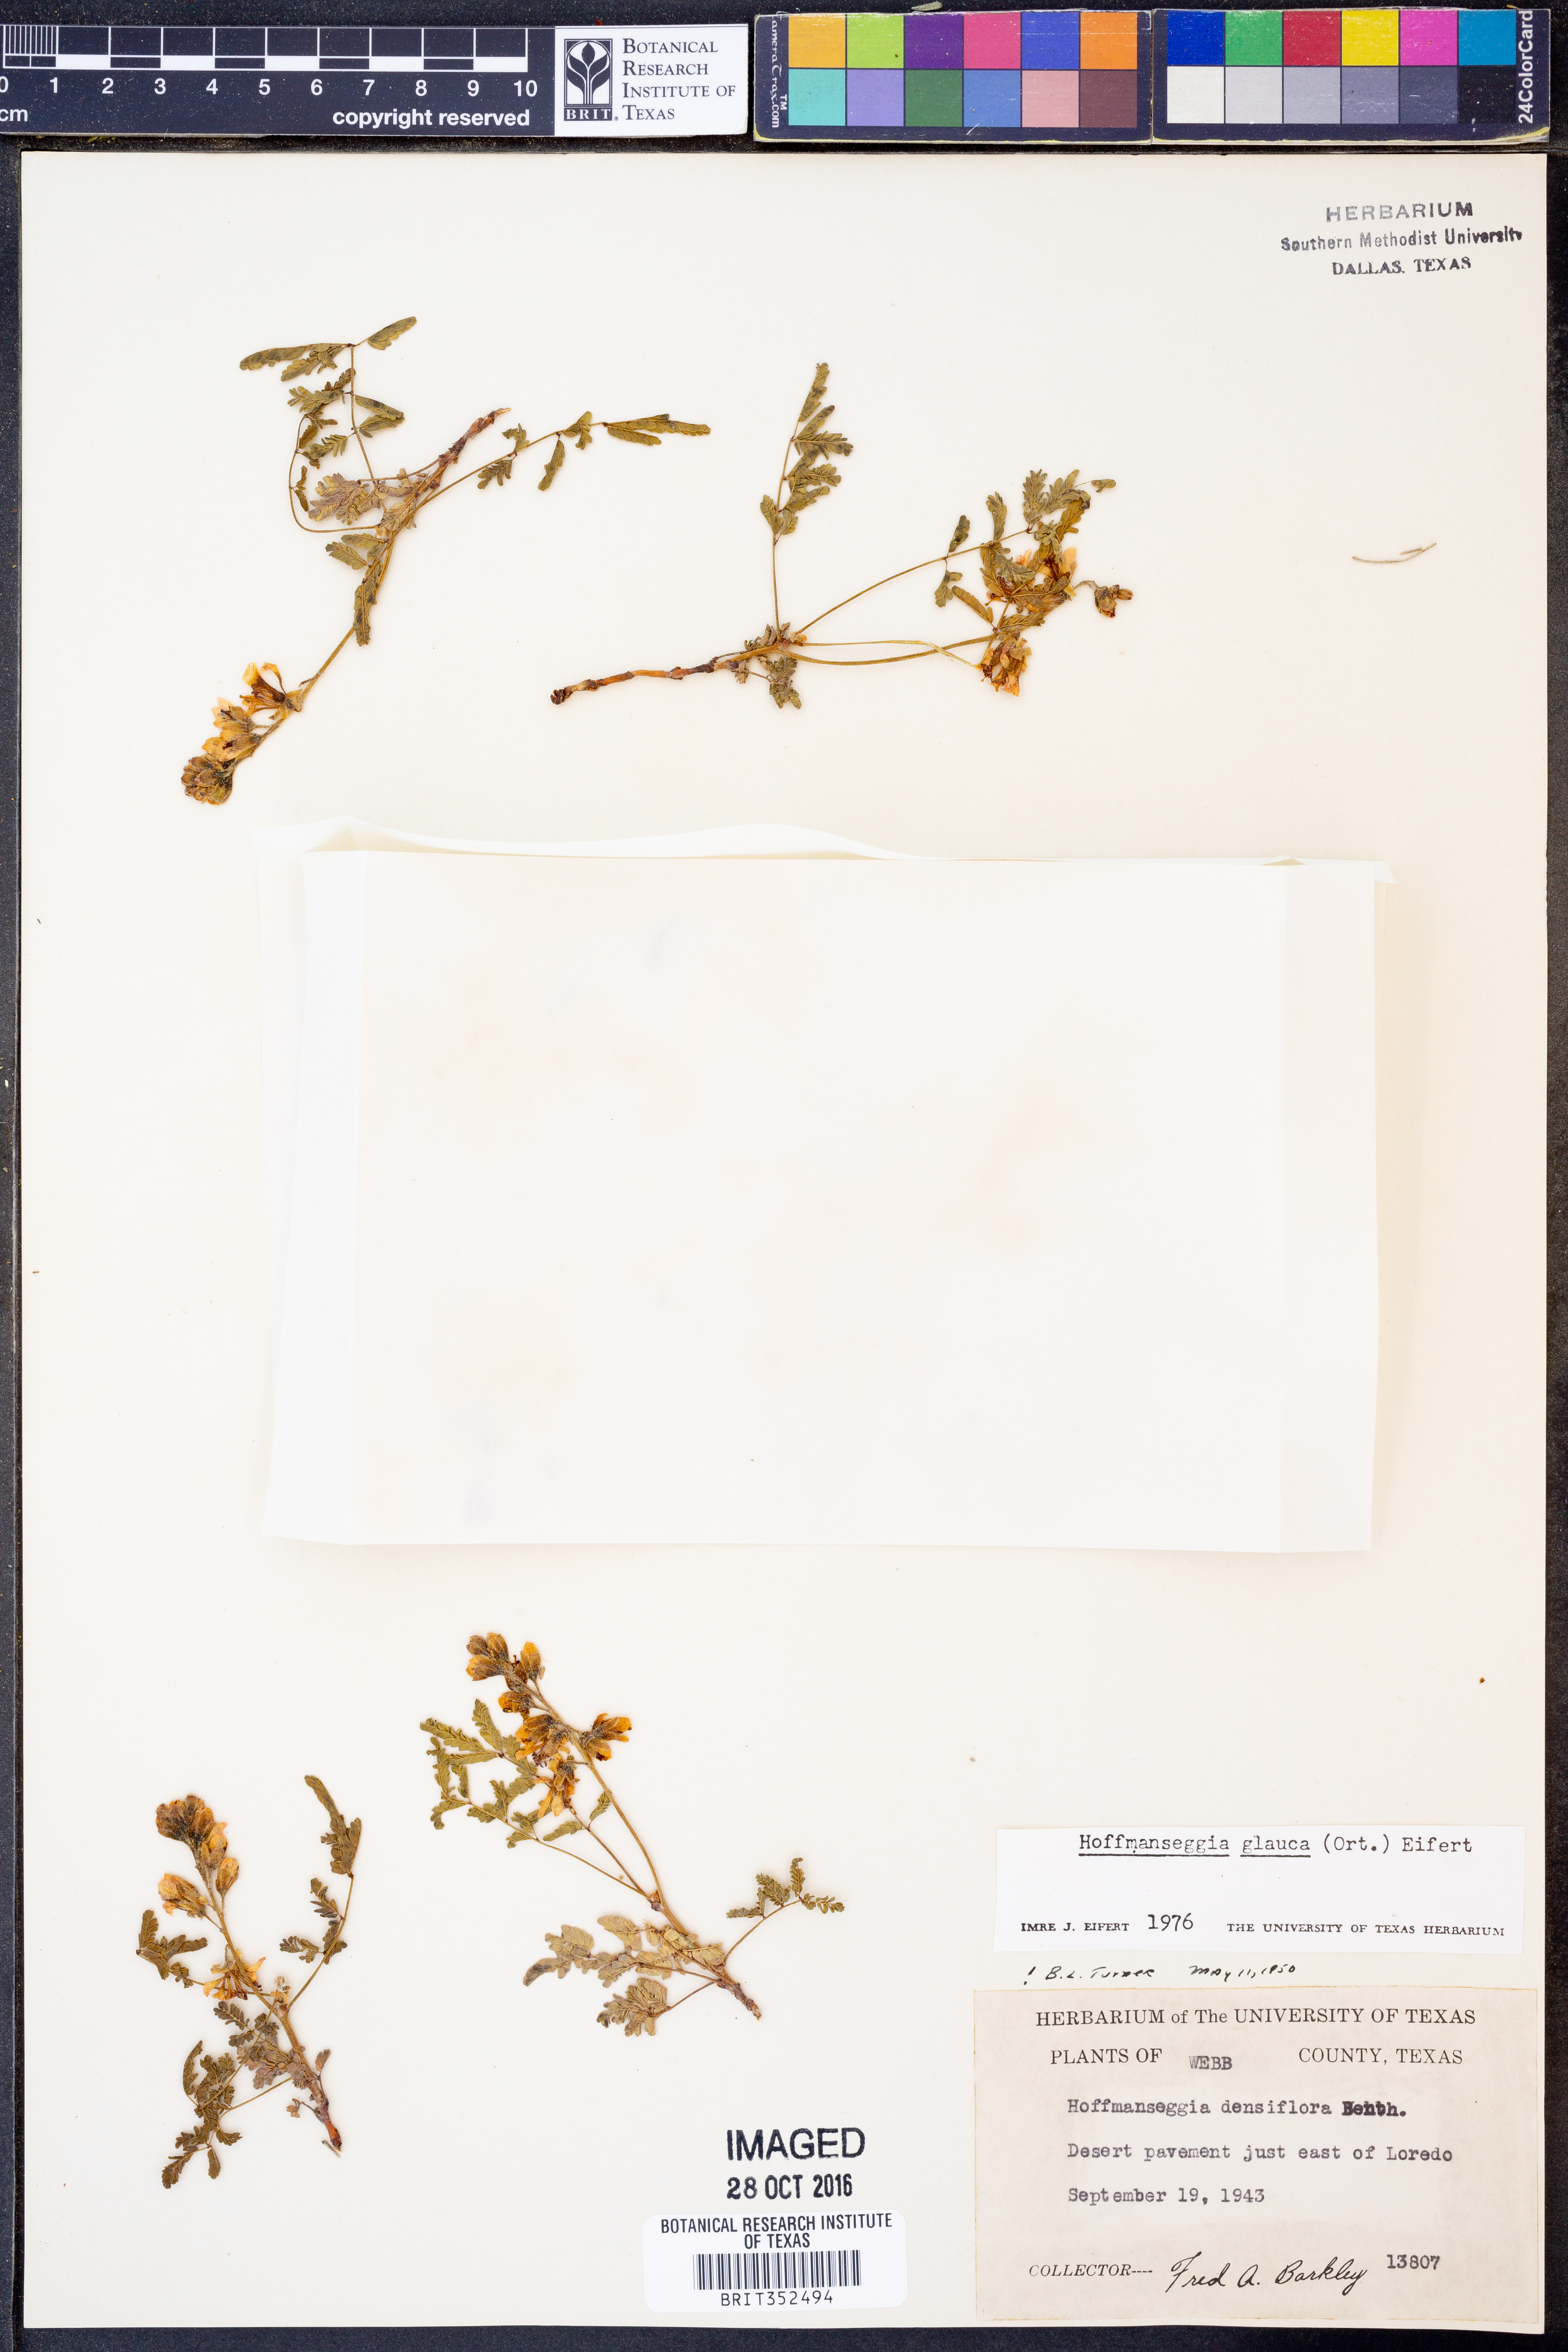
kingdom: Plantae
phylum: Tracheophyta
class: Magnoliopsida
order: Fabales
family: Fabaceae
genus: Hoffmannseggia
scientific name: Hoffmannseggia glauca
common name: Pignut
